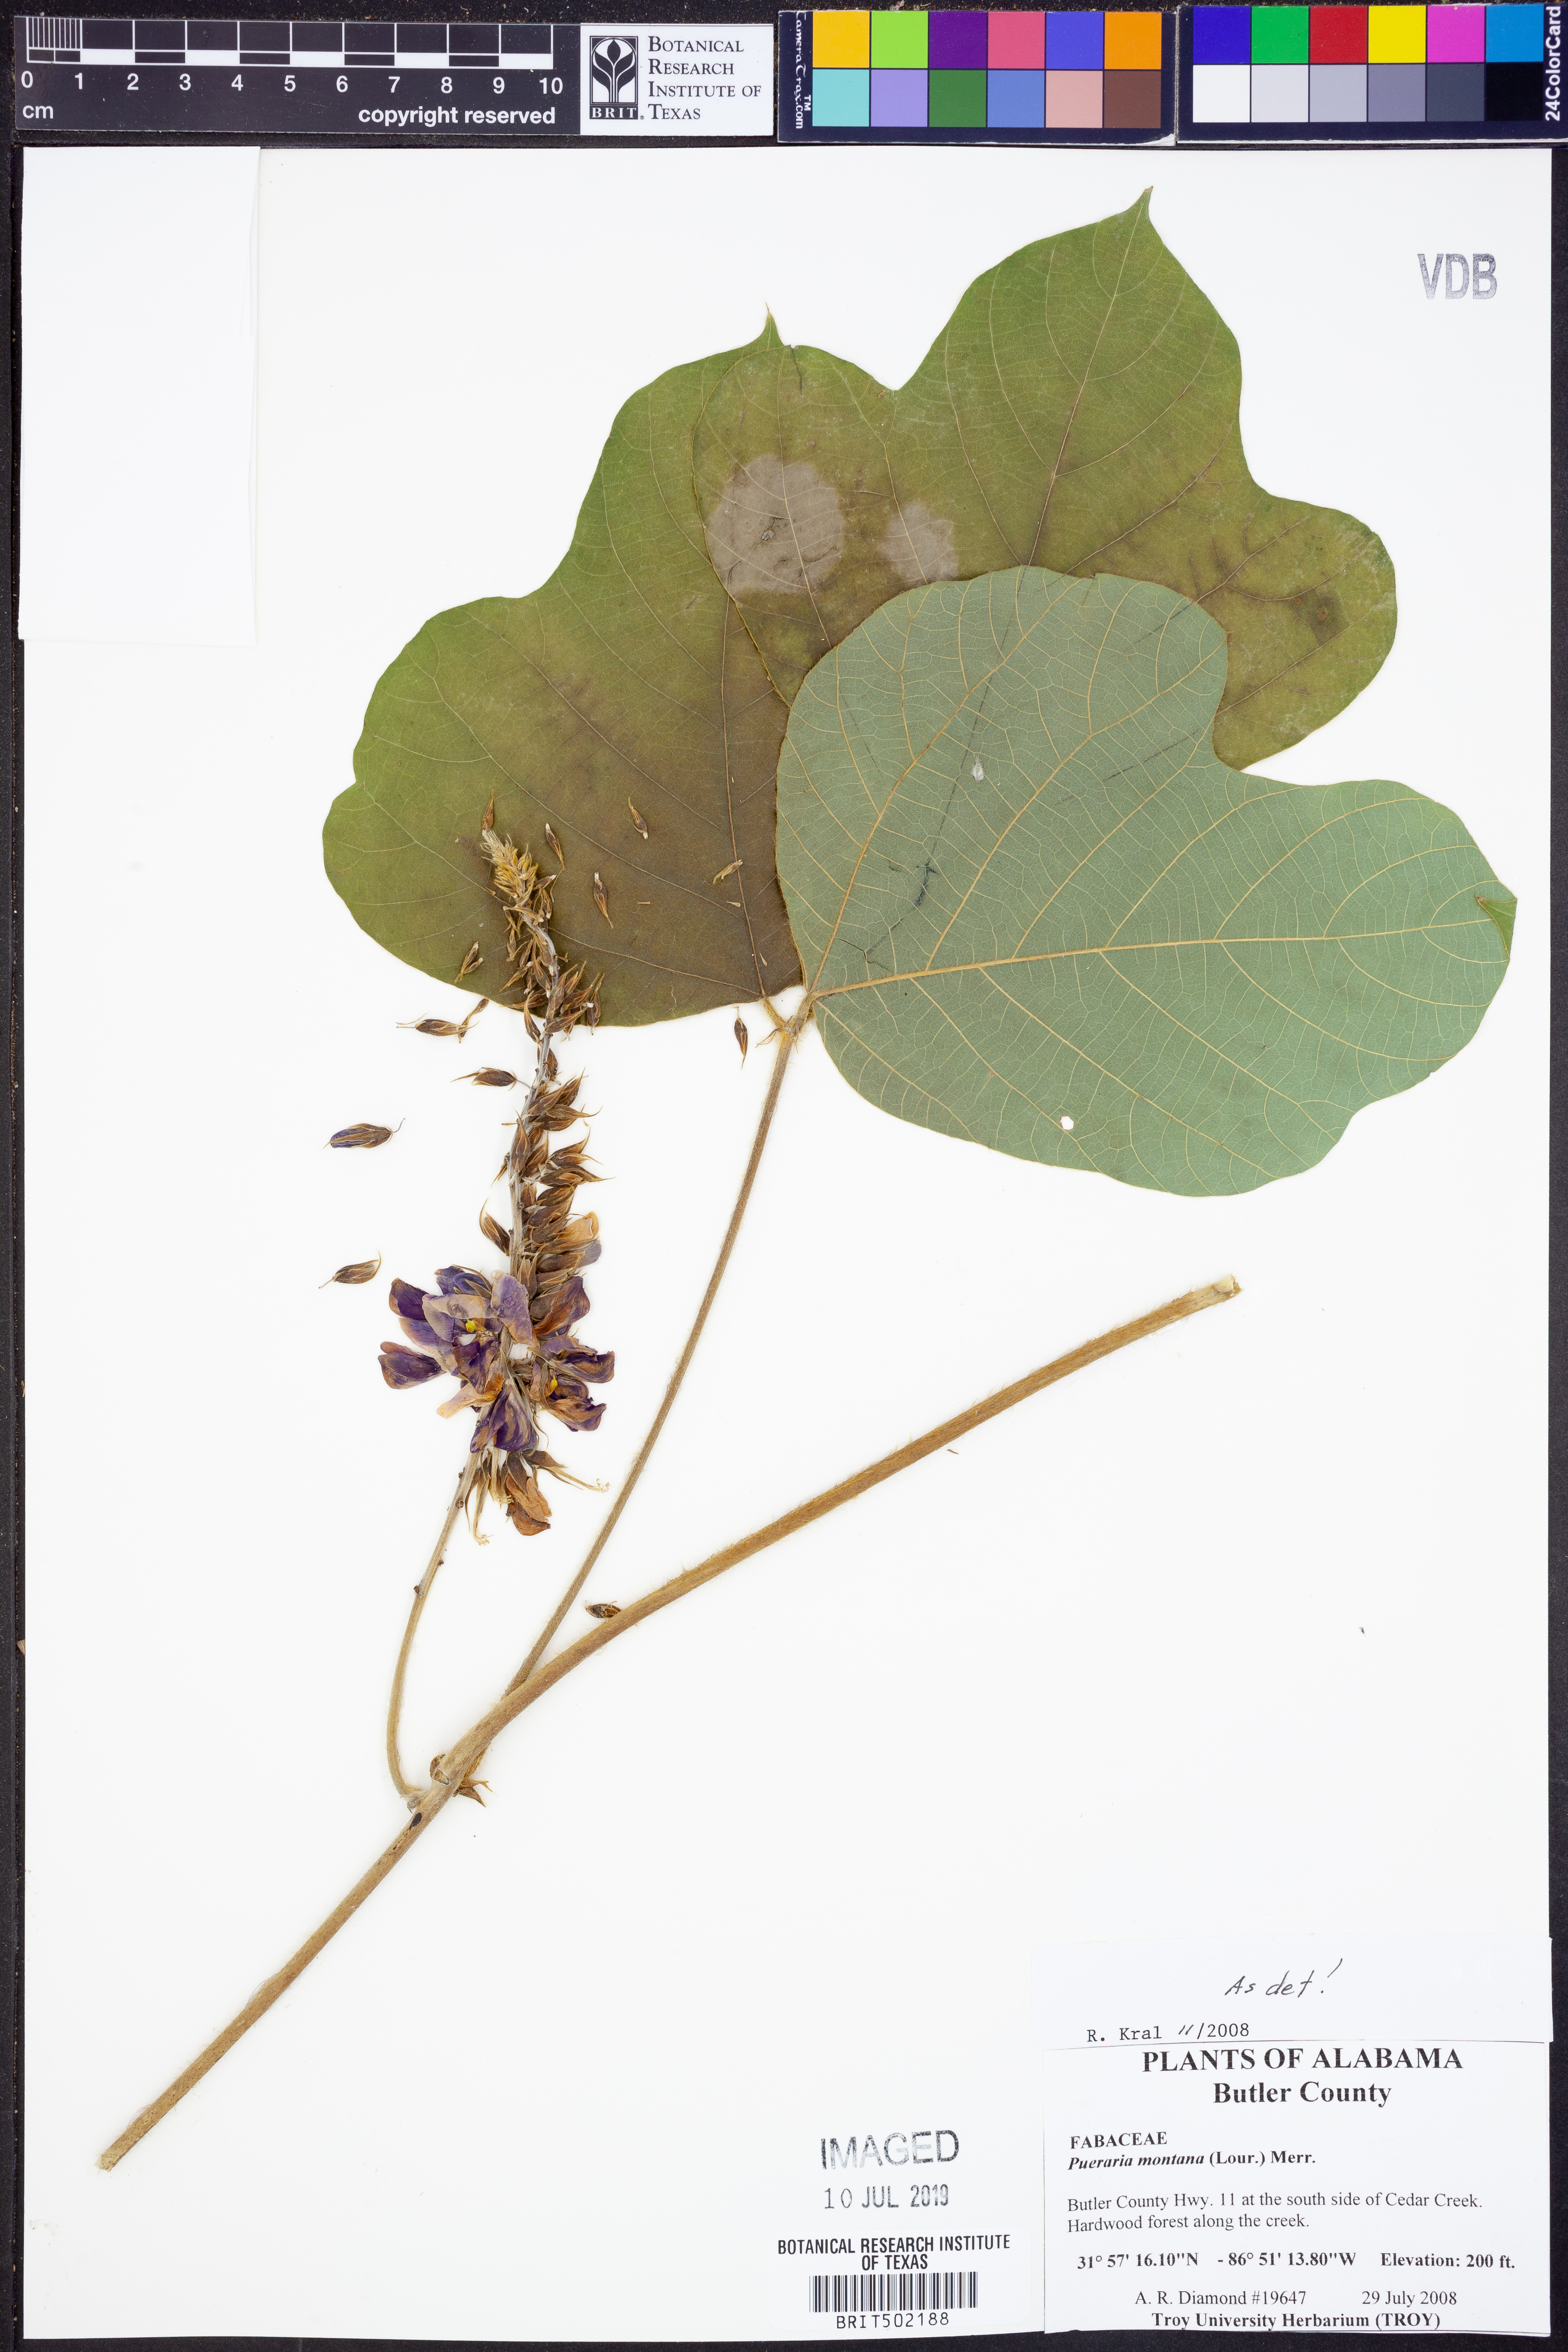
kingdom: Plantae
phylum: Tracheophyta
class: Magnoliopsida
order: Fabales
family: Fabaceae
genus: Pueraria
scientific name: Pueraria montana
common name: Kudzu
